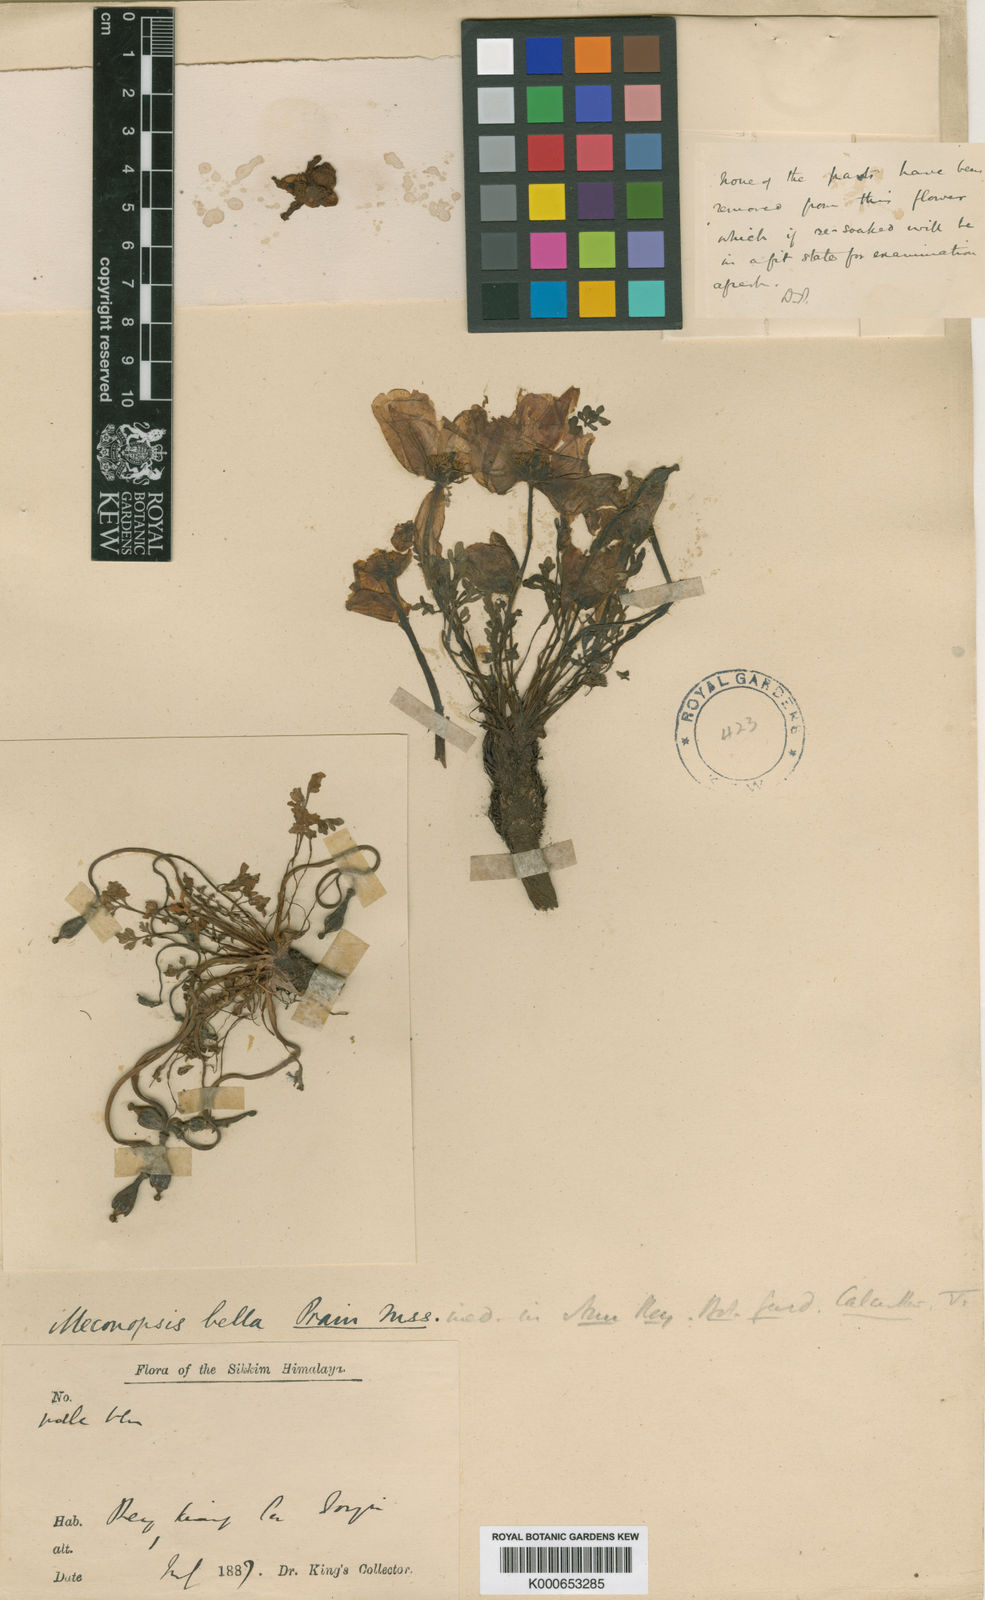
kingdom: Plantae
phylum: Tracheophyta
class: Magnoliopsida
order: Ranunculales
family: Papaveraceae
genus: Meconopsis
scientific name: Meconopsis bella
